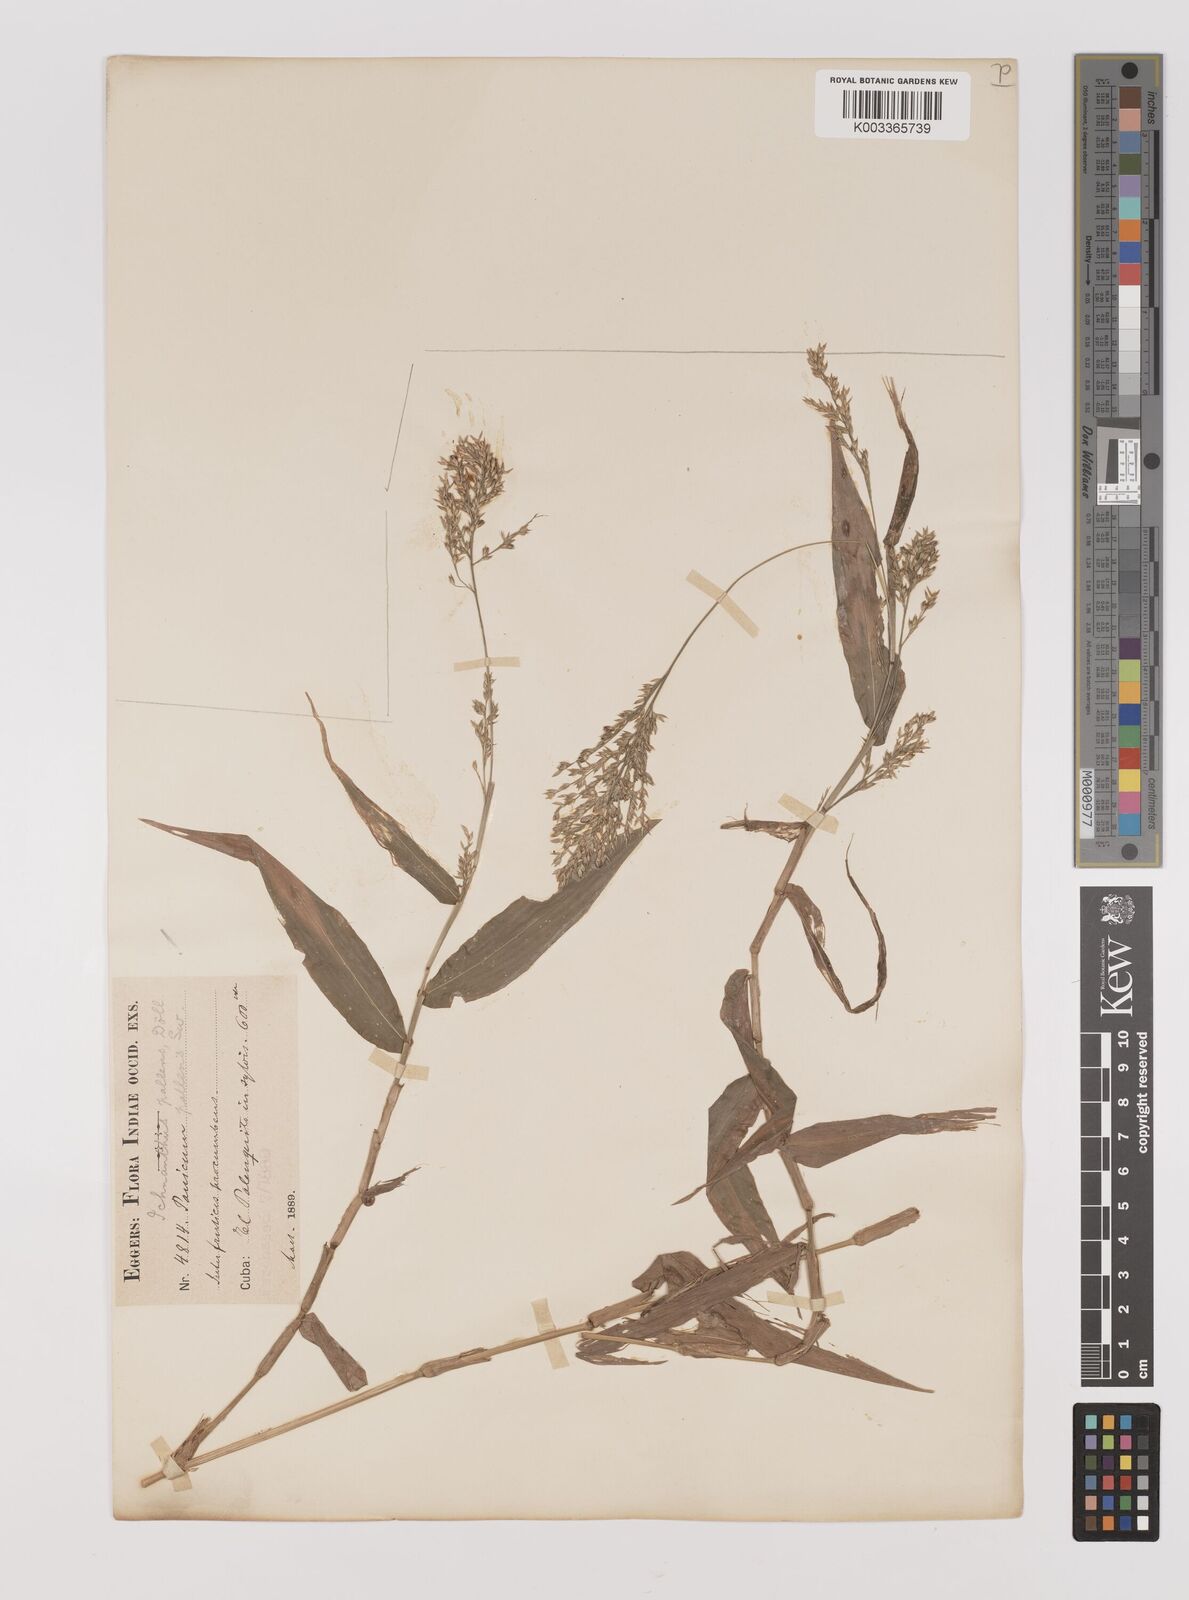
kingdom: Plantae
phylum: Tracheophyta
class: Liliopsida
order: Poales
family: Poaceae
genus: Ichnanthus
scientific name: Ichnanthus pallens
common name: Water grass
